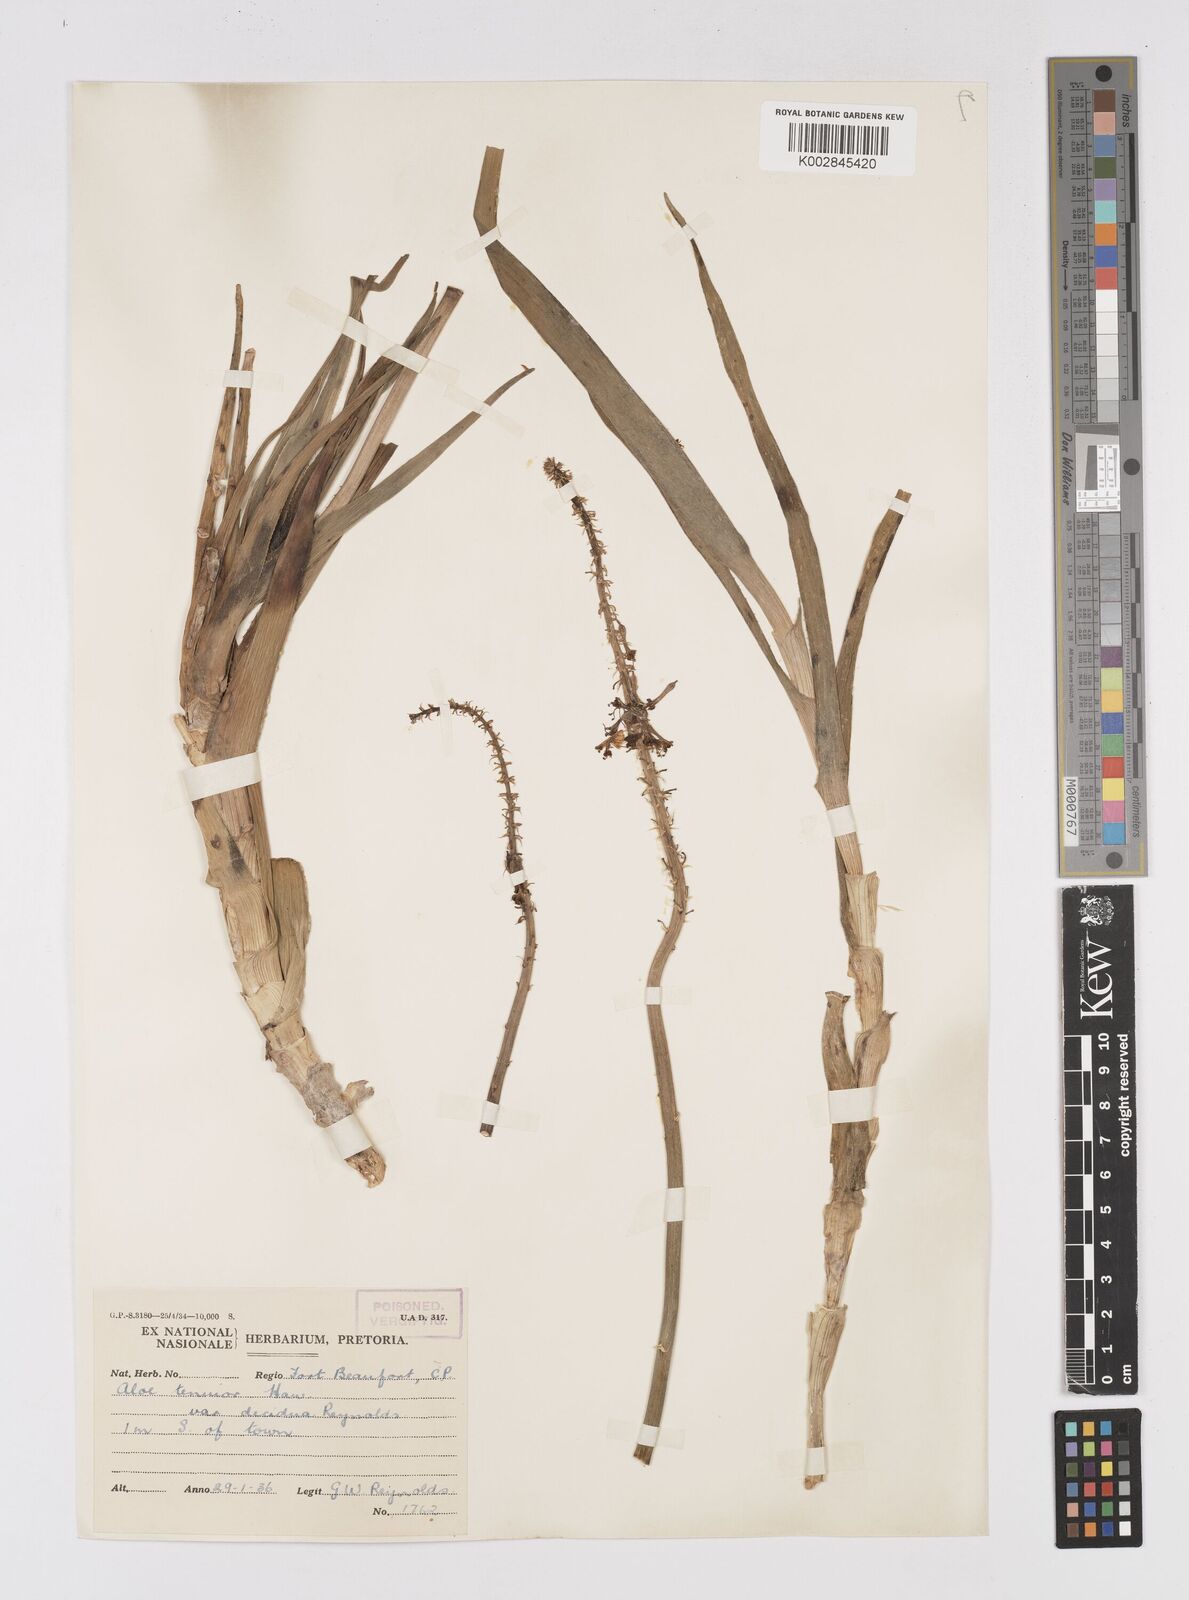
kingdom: Plantae
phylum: Tracheophyta
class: Liliopsida
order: Asparagales
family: Asphodelaceae
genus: Aloiampelos
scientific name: Aloiampelos tenuior
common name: Fence aloe
